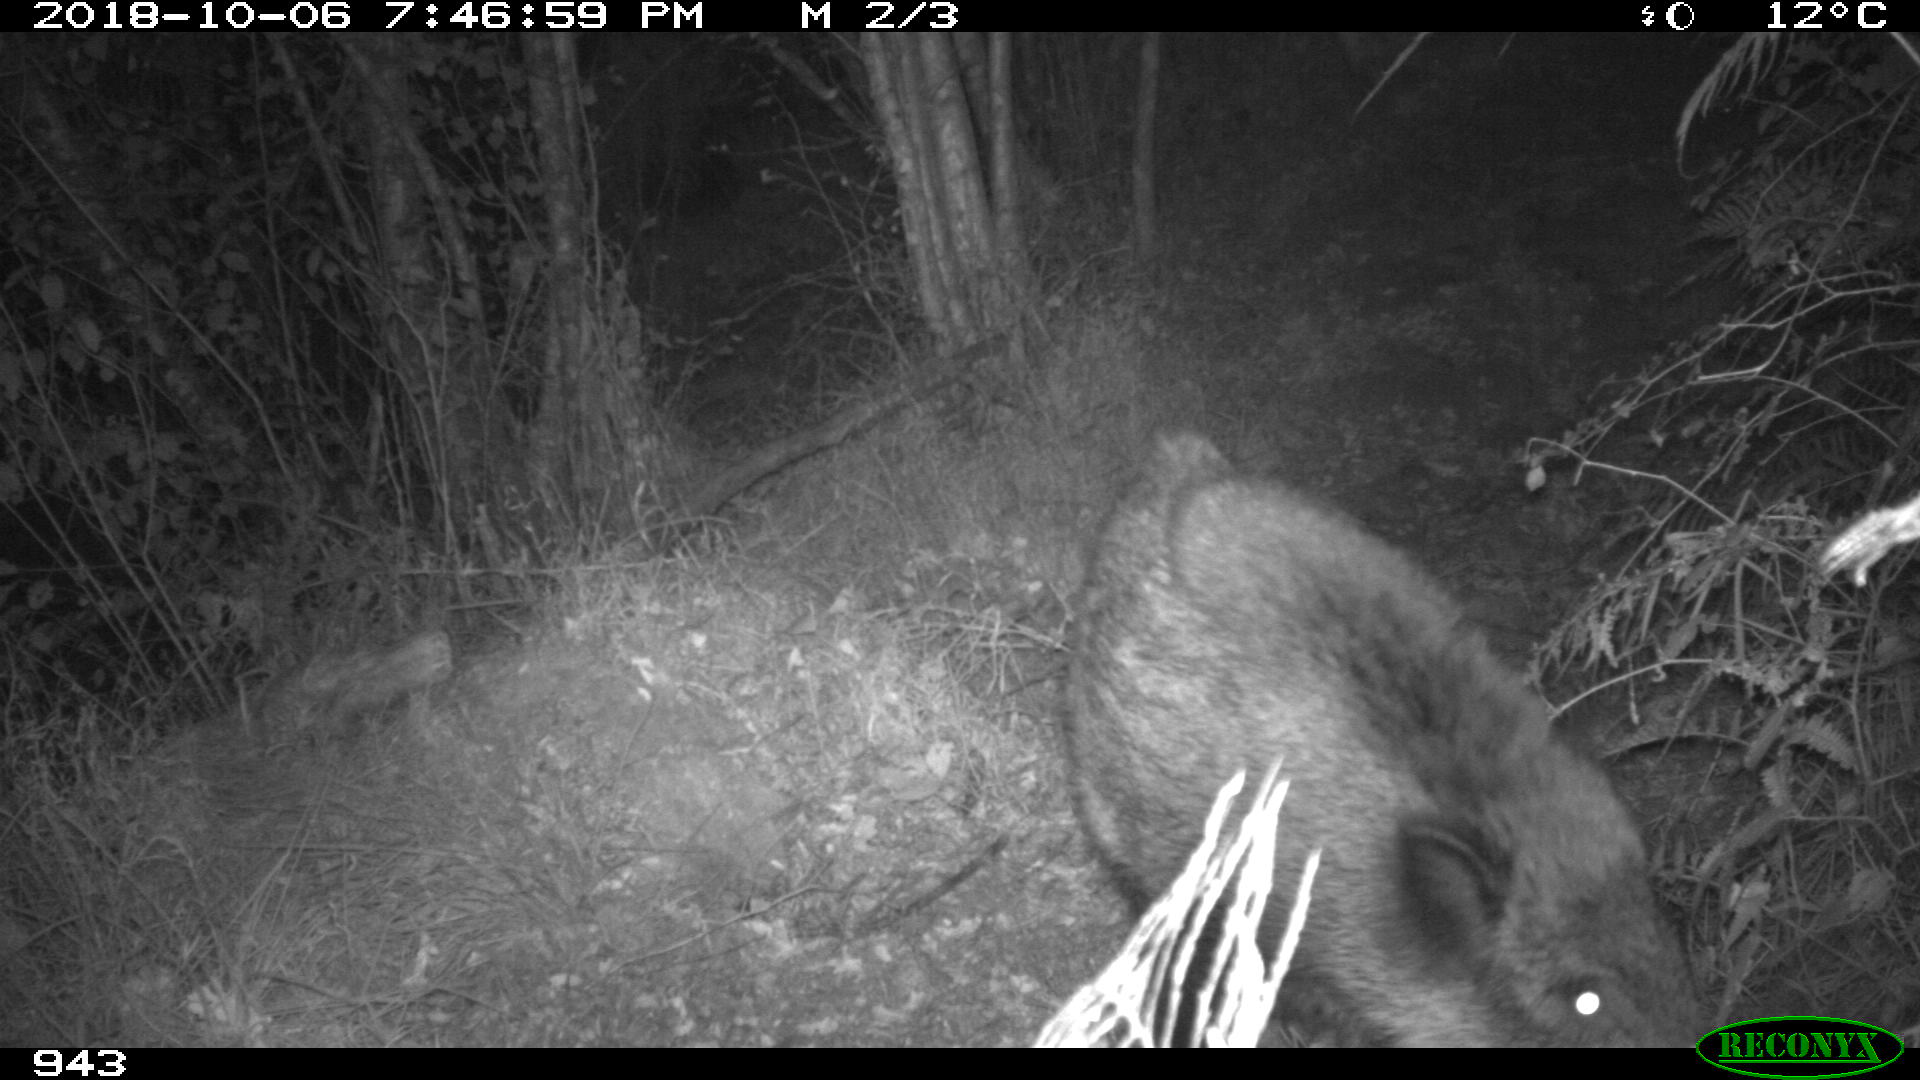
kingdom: Animalia
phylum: Chordata
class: Mammalia
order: Artiodactyla
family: Suidae
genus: Sus
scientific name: Sus scrofa
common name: Wild boar
